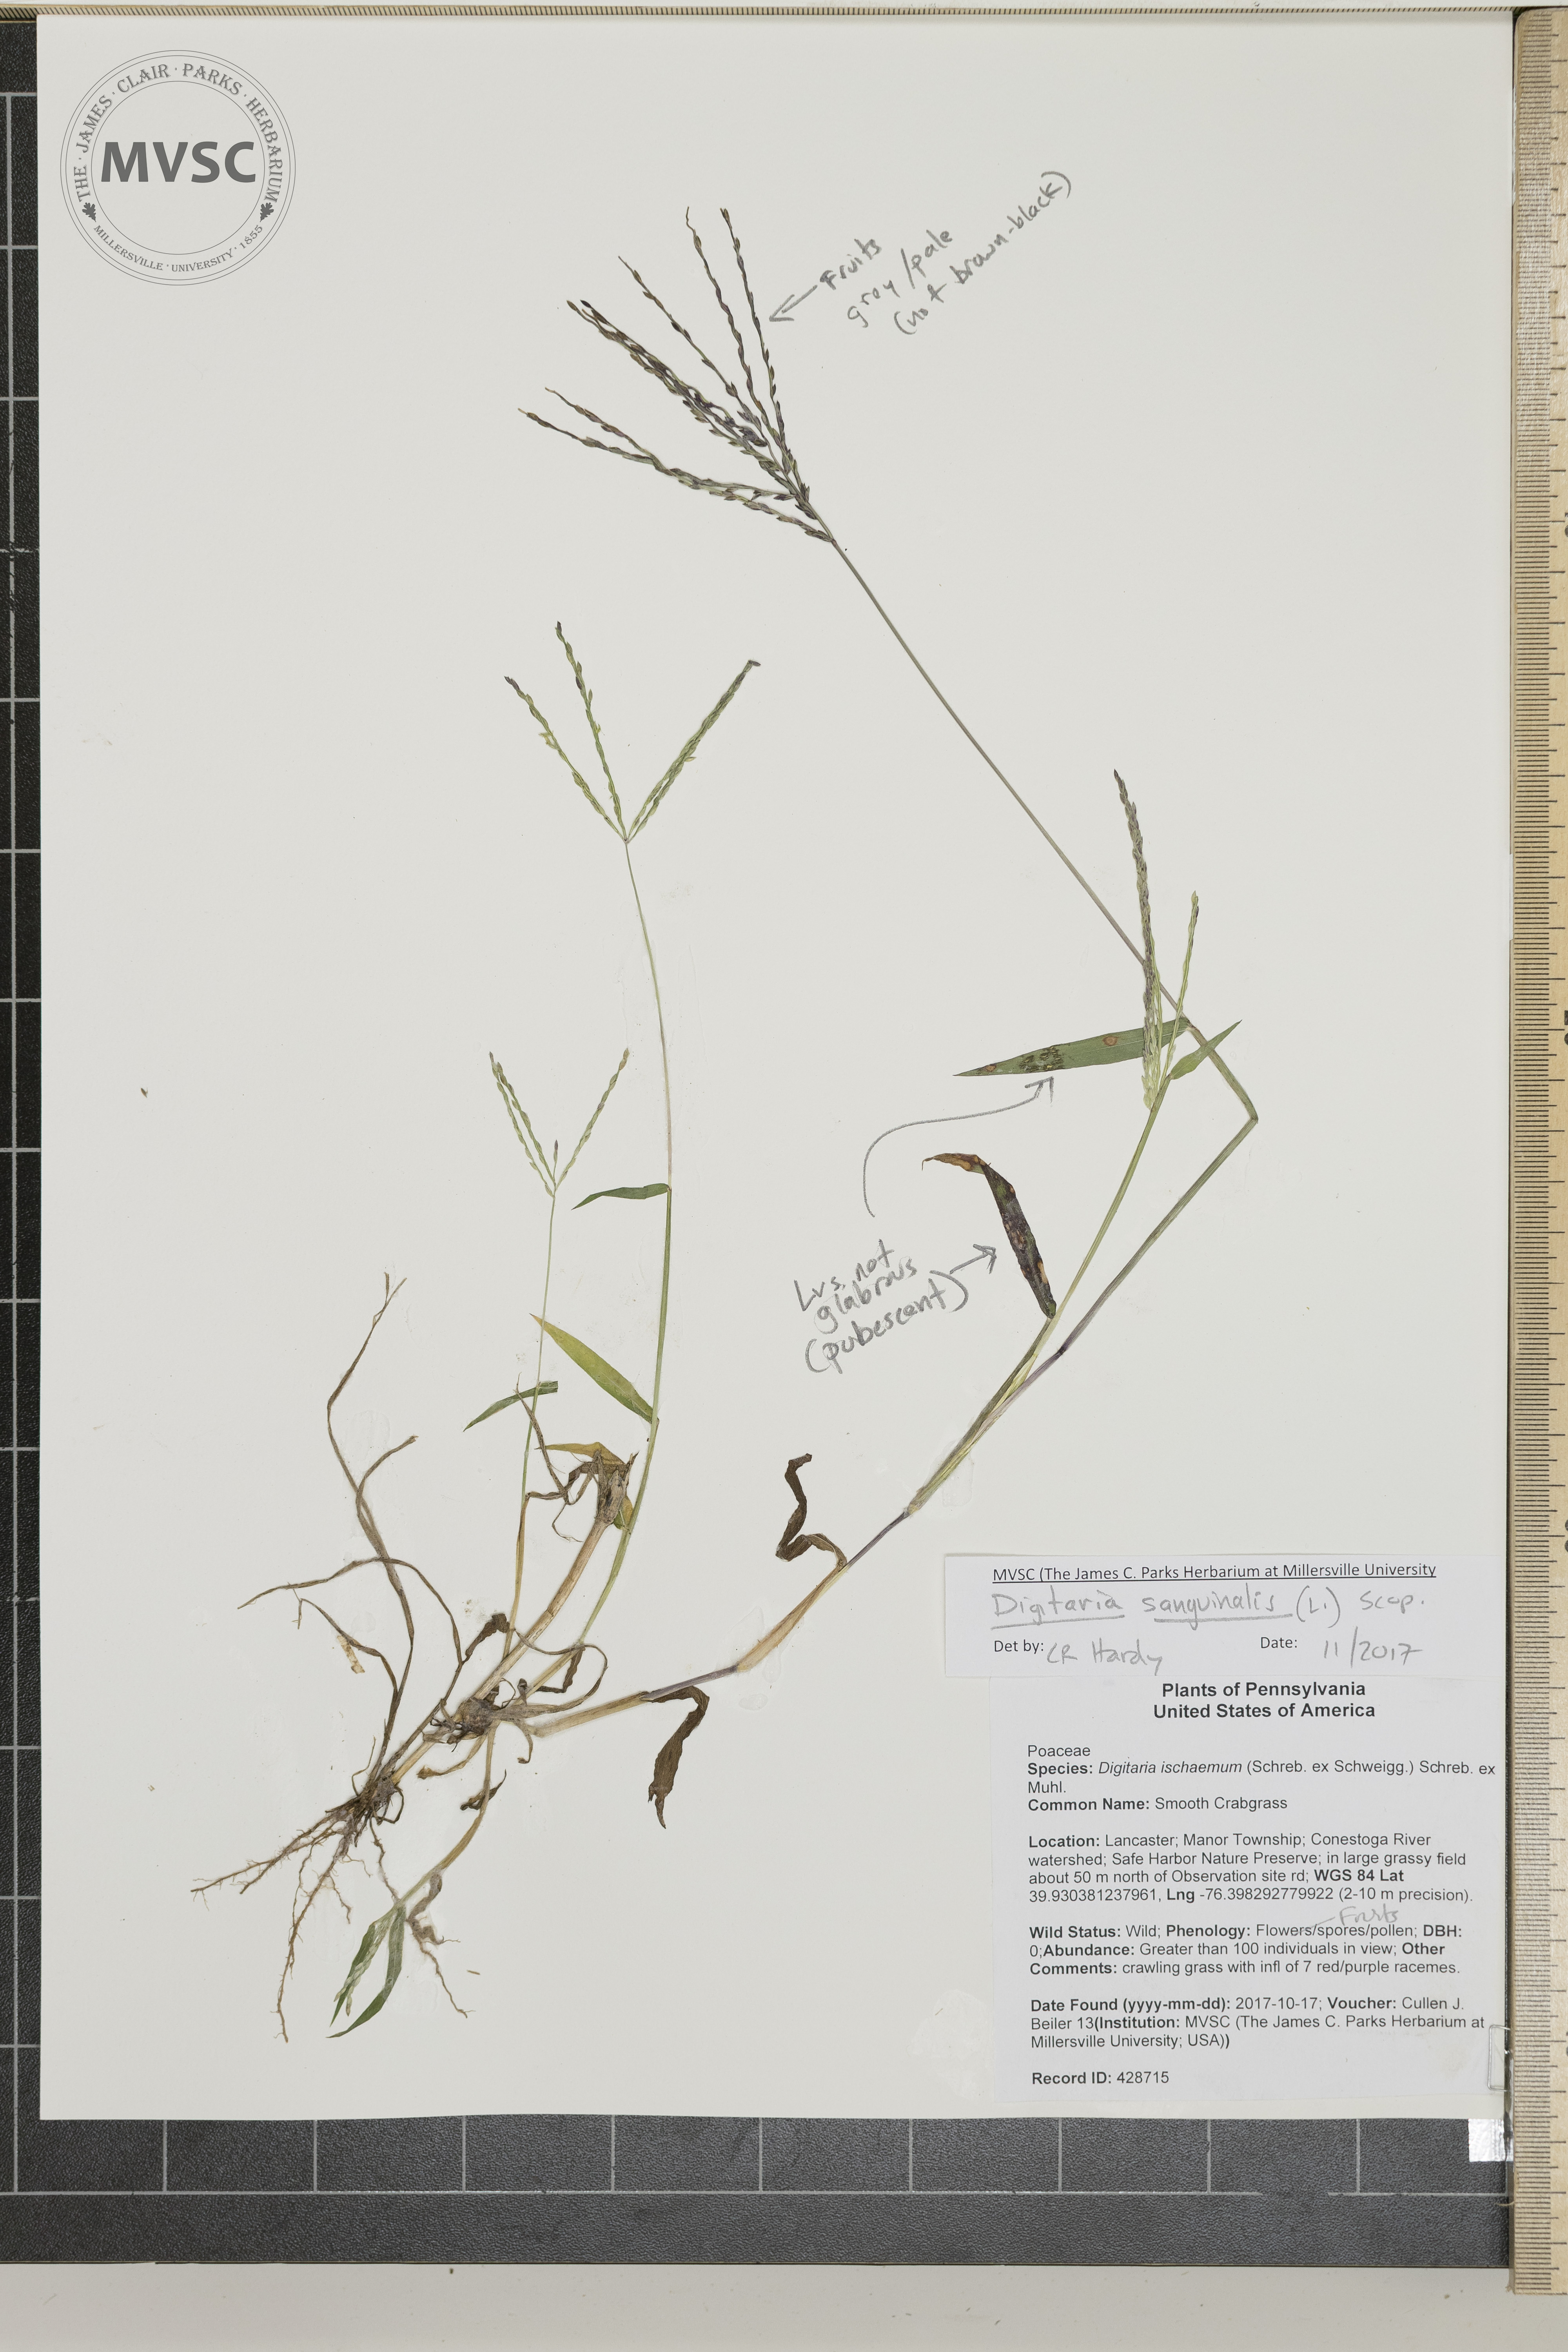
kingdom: Plantae
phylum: Tracheophyta
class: Liliopsida
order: Poales
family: Poaceae
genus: Digitaria
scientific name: Digitaria sanguinalis
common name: Northern Crabgrass
